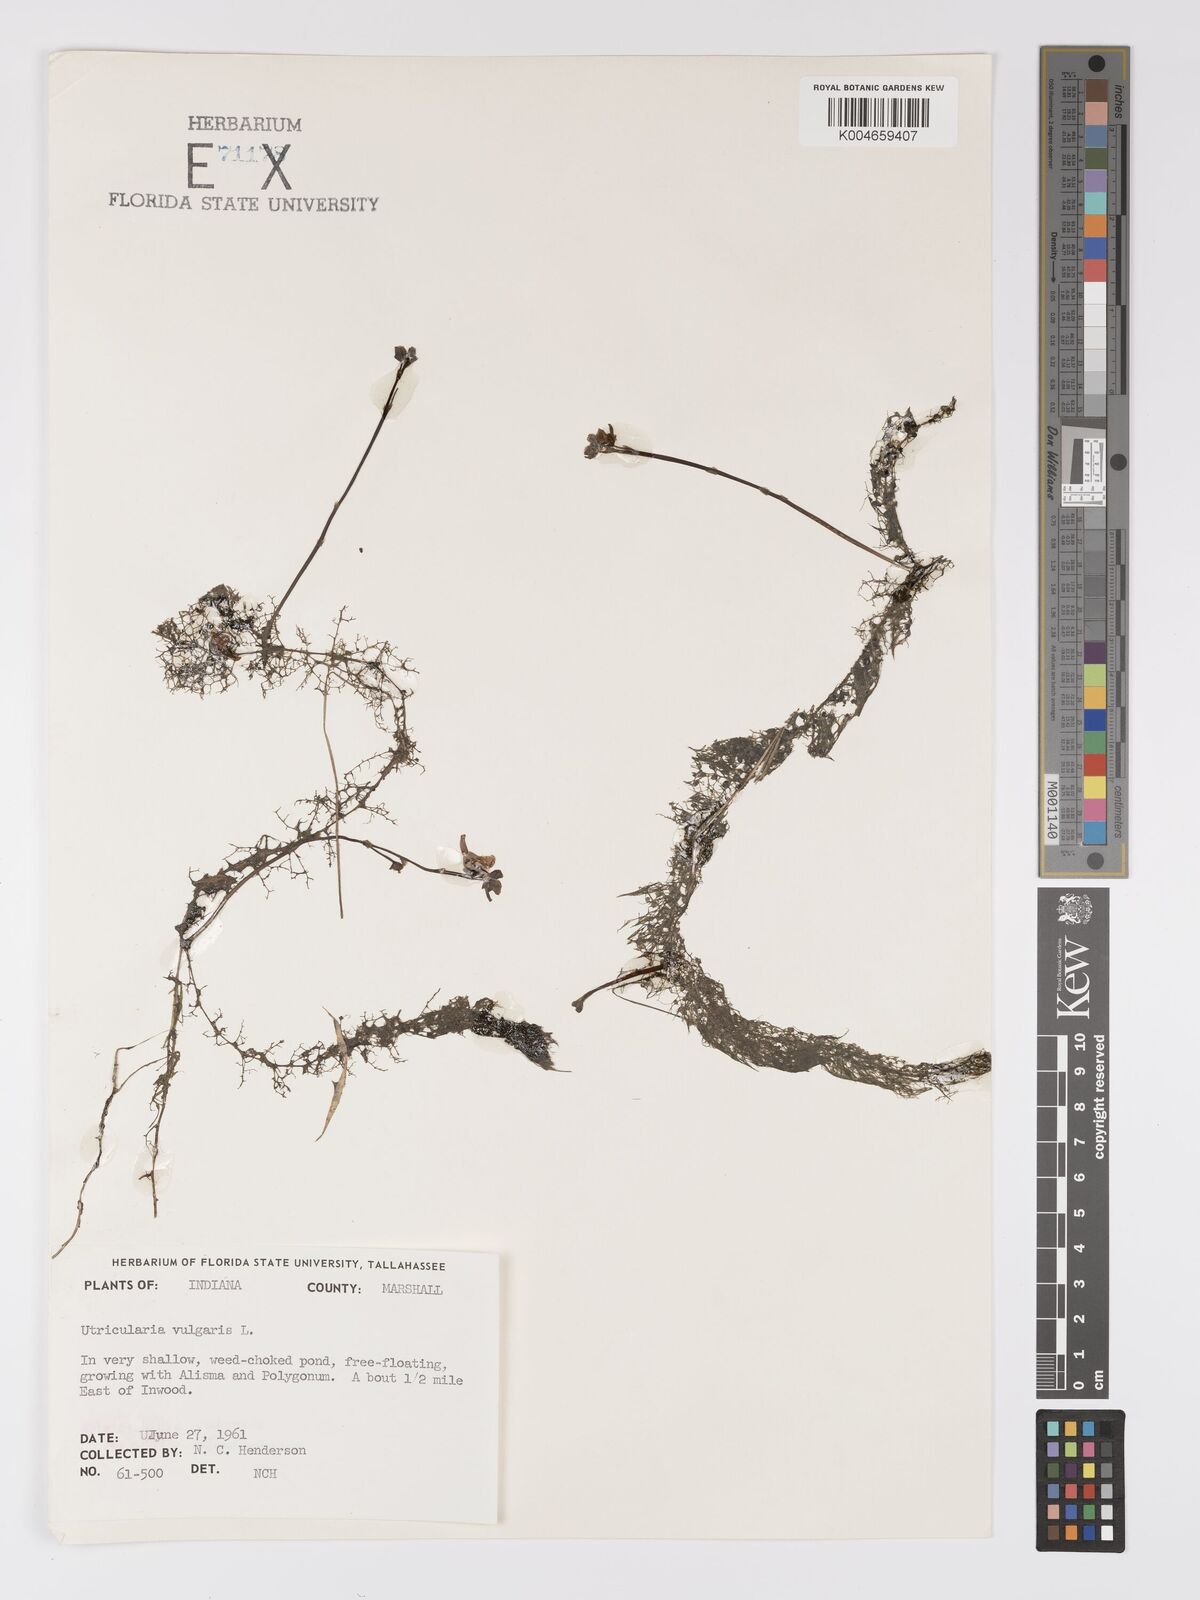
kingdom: Plantae
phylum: Tracheophyta
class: Magnoliopsida
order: Lamiales
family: Lentibulariaceae
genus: Utricularia
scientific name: Utricularia macrorhiza
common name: Common bladderwort
